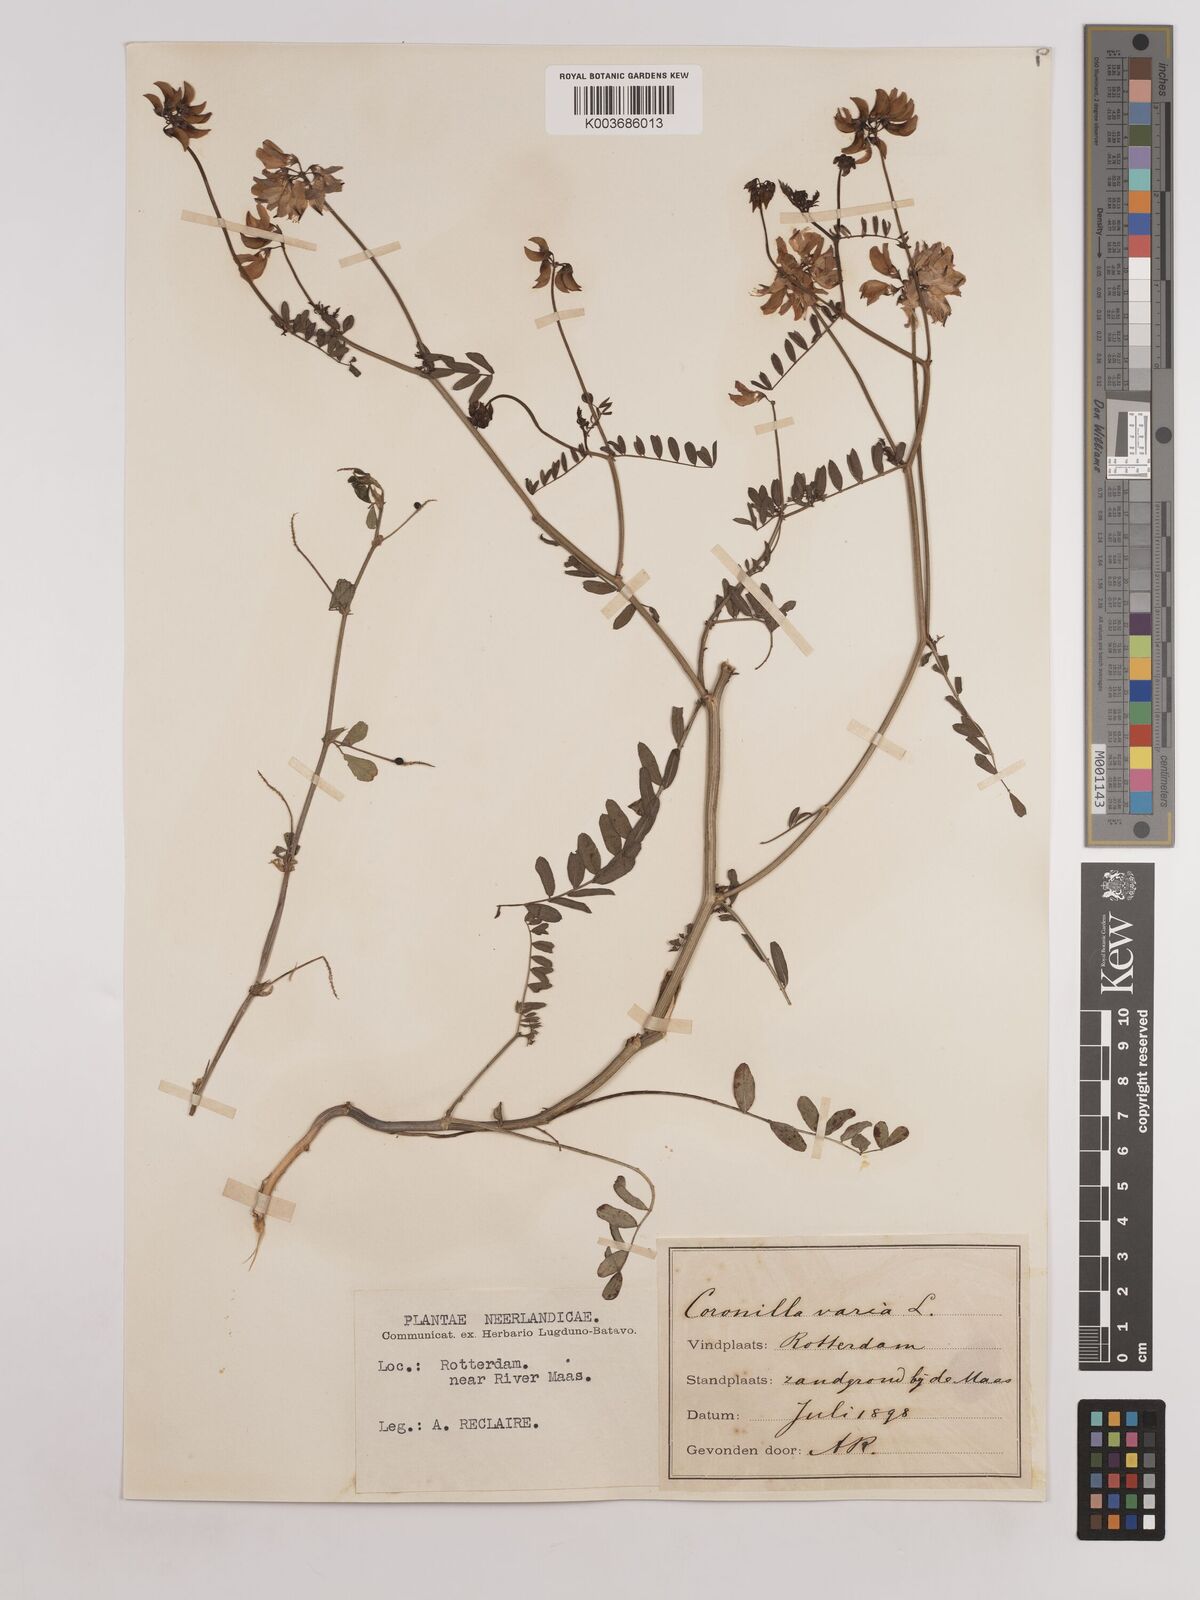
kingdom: Plantae
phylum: Tracheophyta
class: Magnoliopsida
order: Fabales
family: Fabaceae
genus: Coronilla
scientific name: Coronilla varia
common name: Crownvetch
